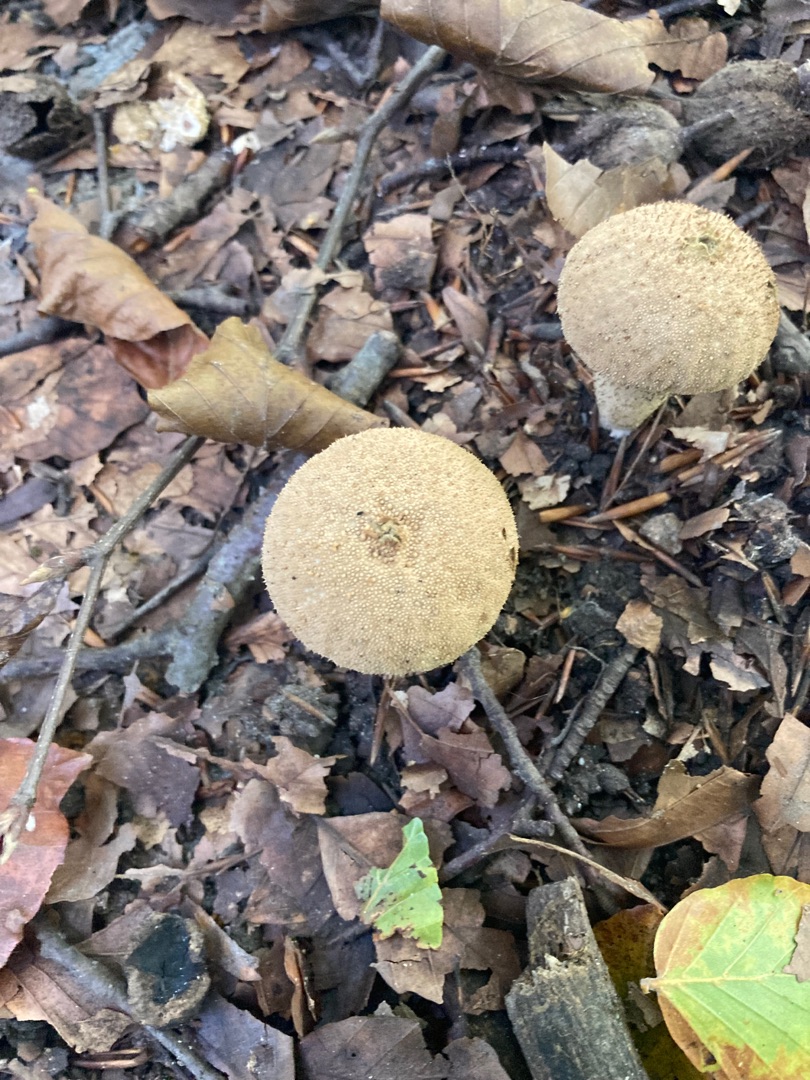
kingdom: Fungi
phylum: Basidiomycota
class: Agaricomycetes
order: Agaricales
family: Lycoperdaceae
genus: Lycoperdon
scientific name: Lycoperdon perlatum
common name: Krystal-støvbold
